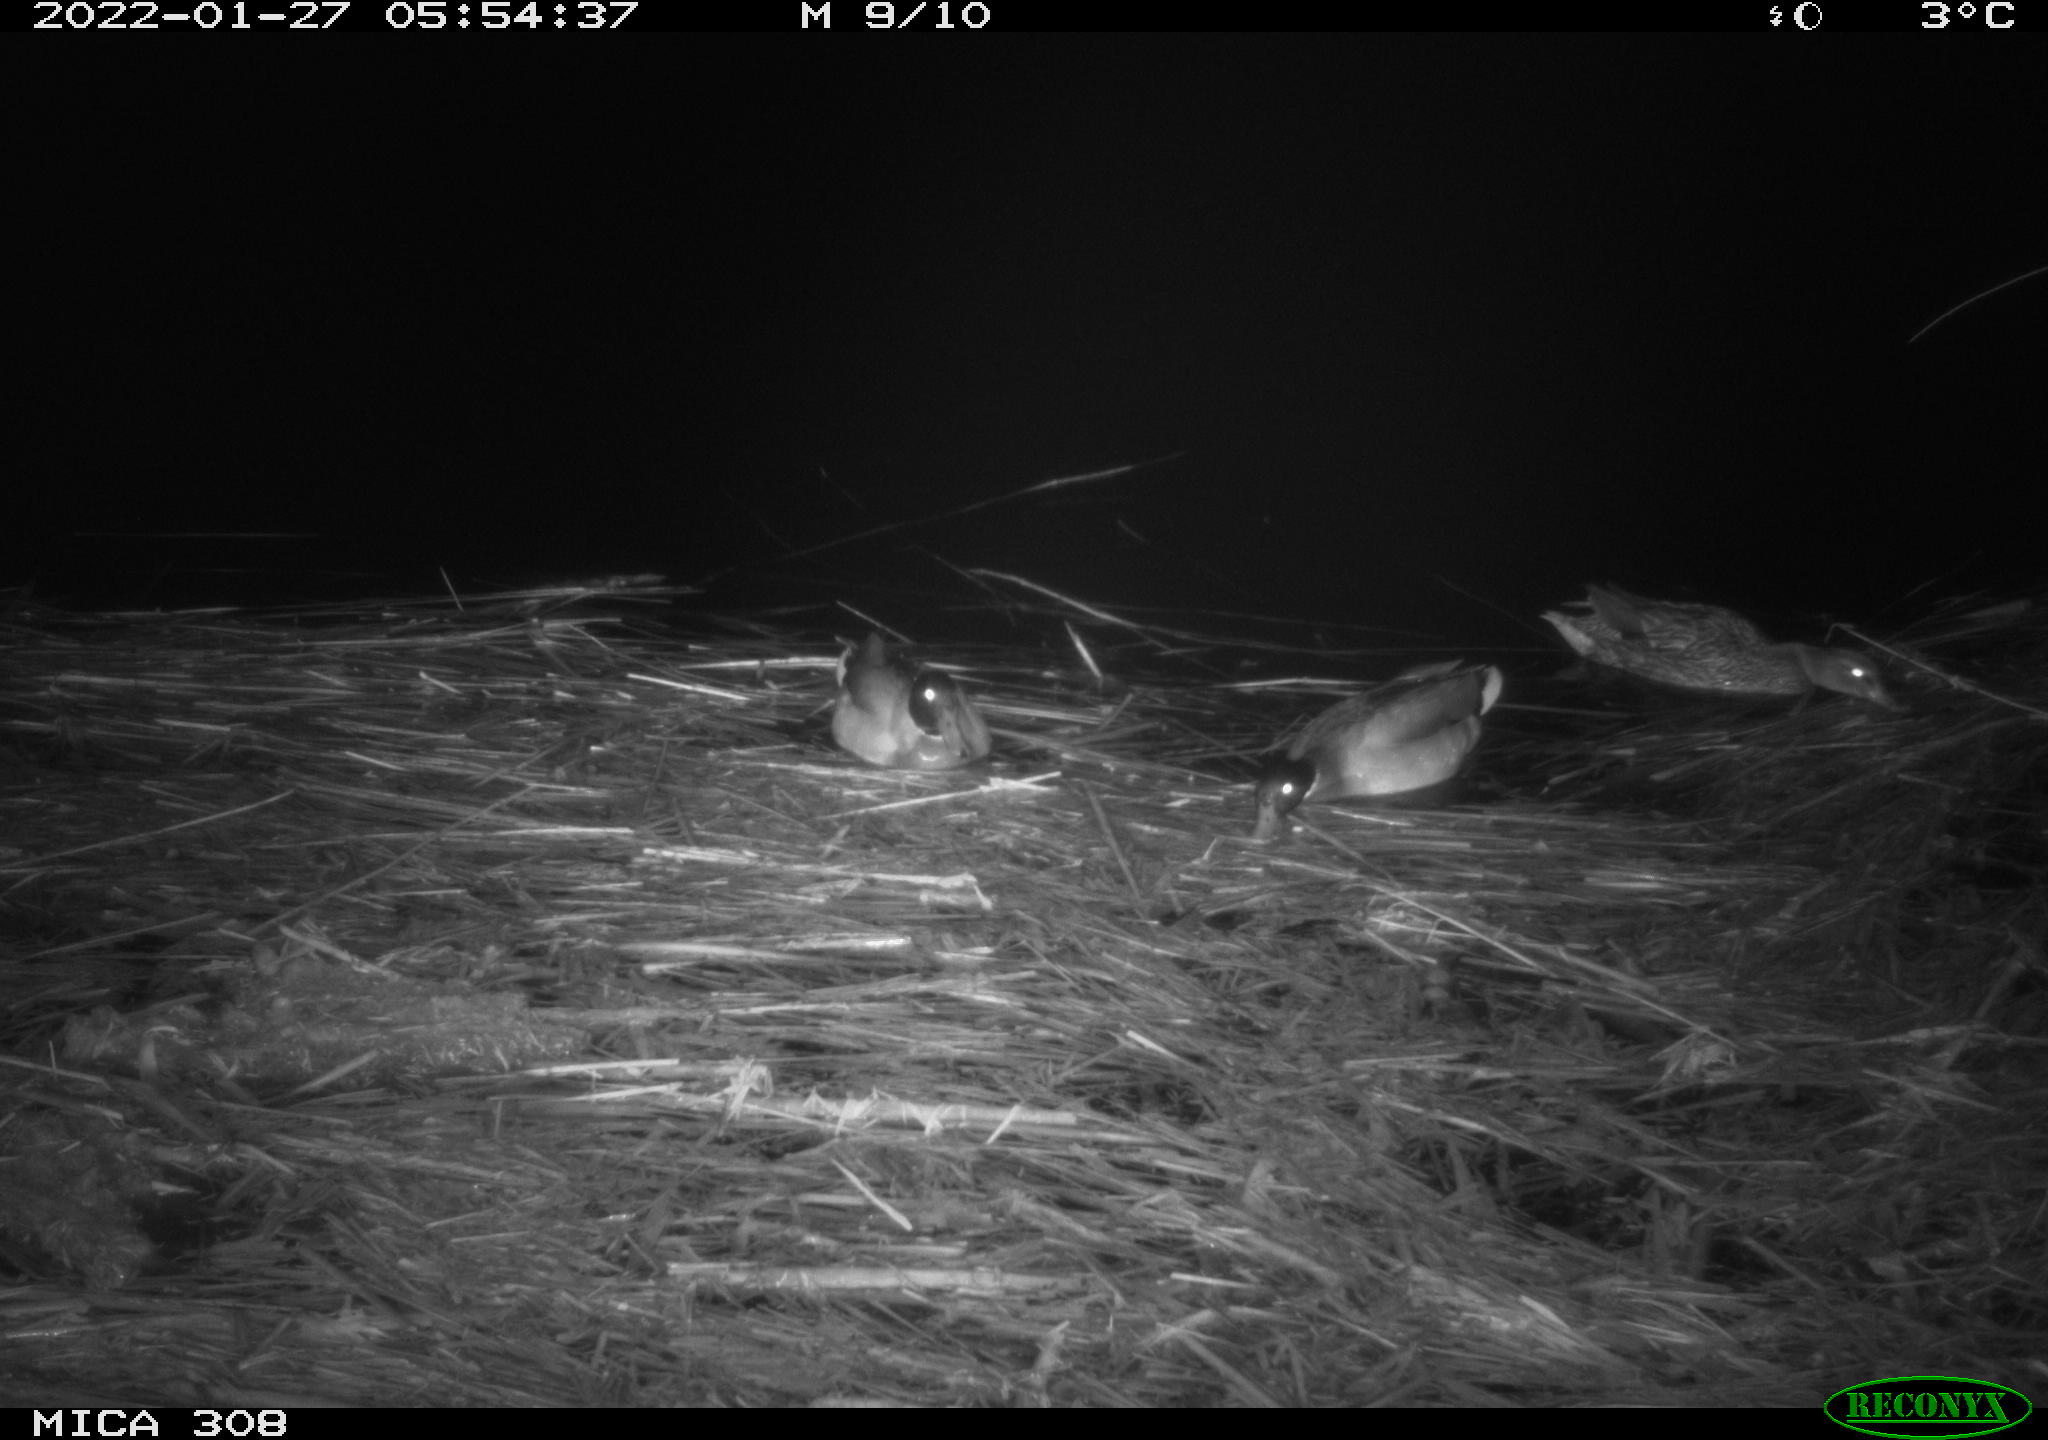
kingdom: Animalia
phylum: Chordata
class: Aves
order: Anseriformes
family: Anatidae
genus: Anas
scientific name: Anas
